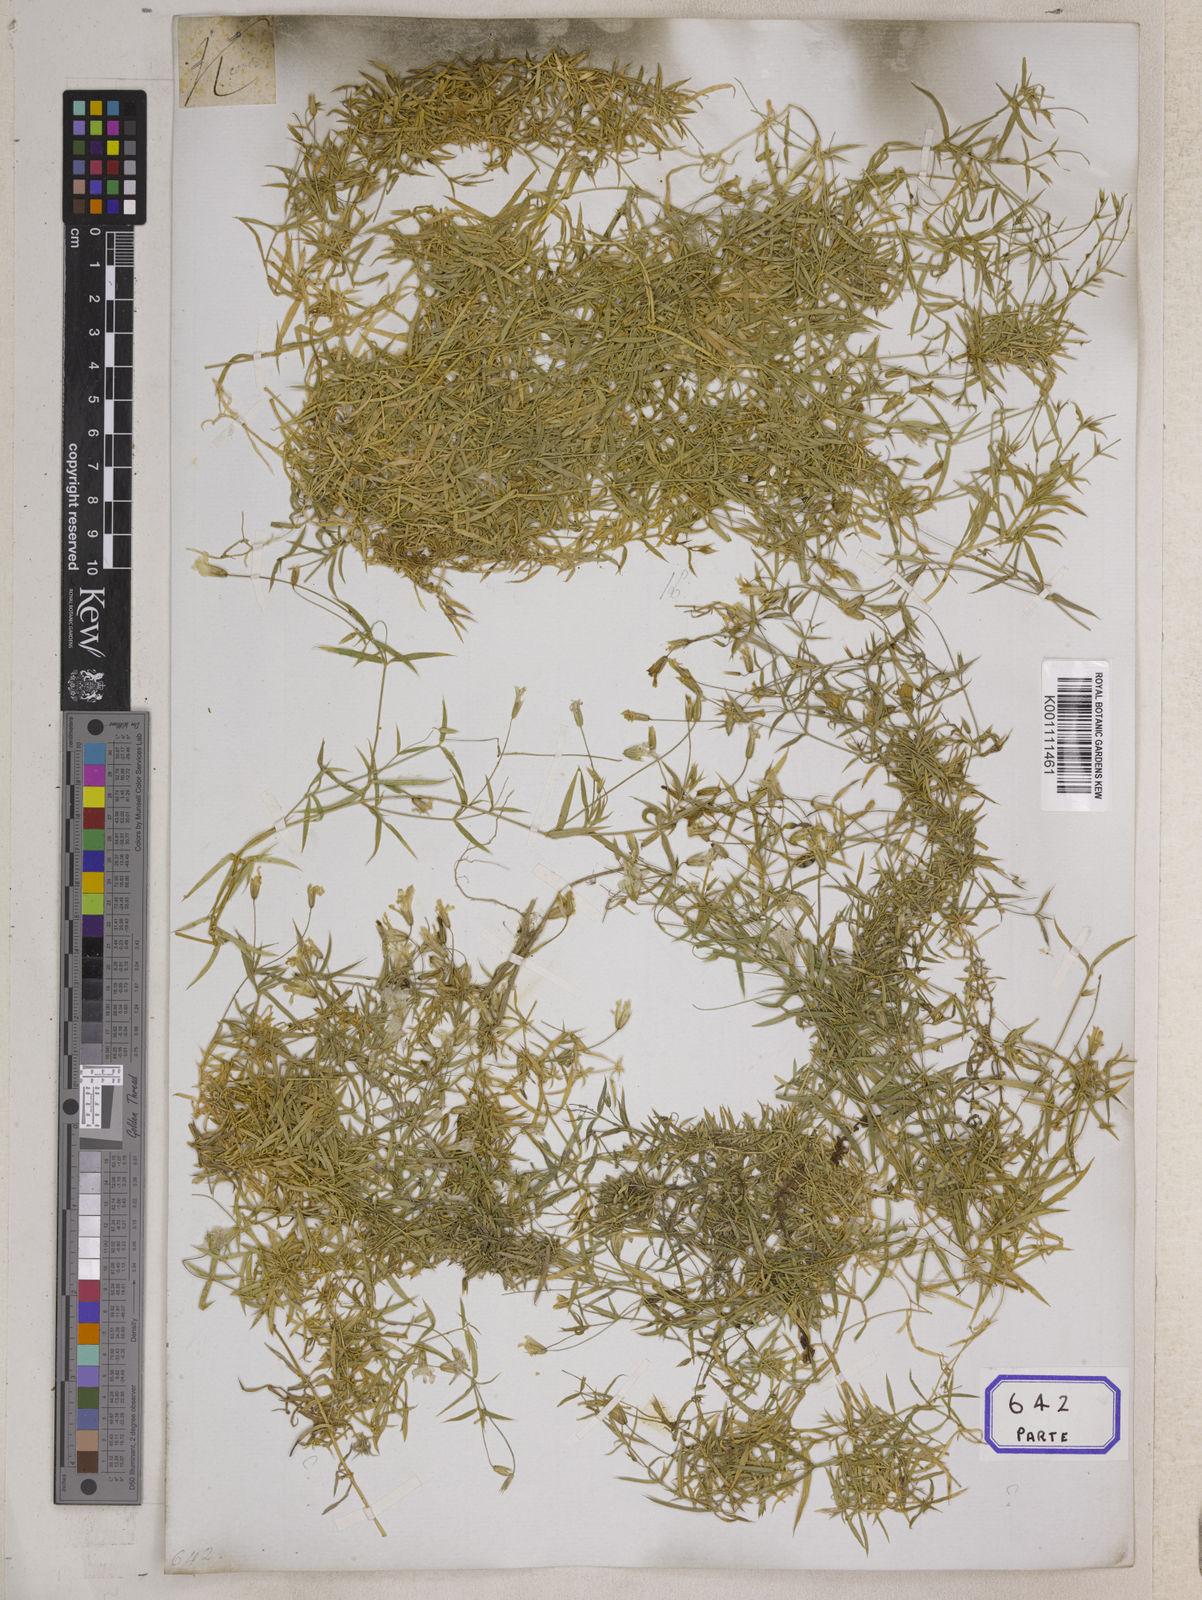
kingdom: Plantae
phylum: Tracheophyta
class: Magnoliopsida
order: Asterales
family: Asteraceae
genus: Syncarpha
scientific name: Syncarpha
